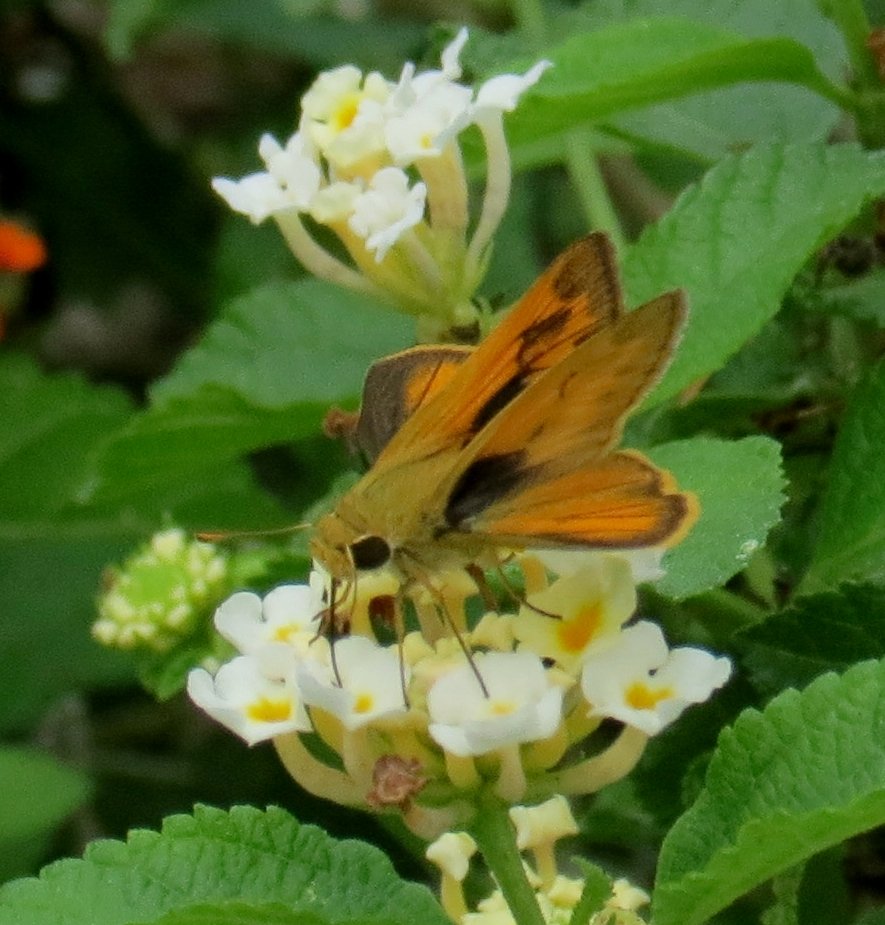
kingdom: Animalia
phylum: Arthropoda
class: Insecta
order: Lepidoptera
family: Hesperiidae
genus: Polites
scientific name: Polites vibex
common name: Whirlabout
